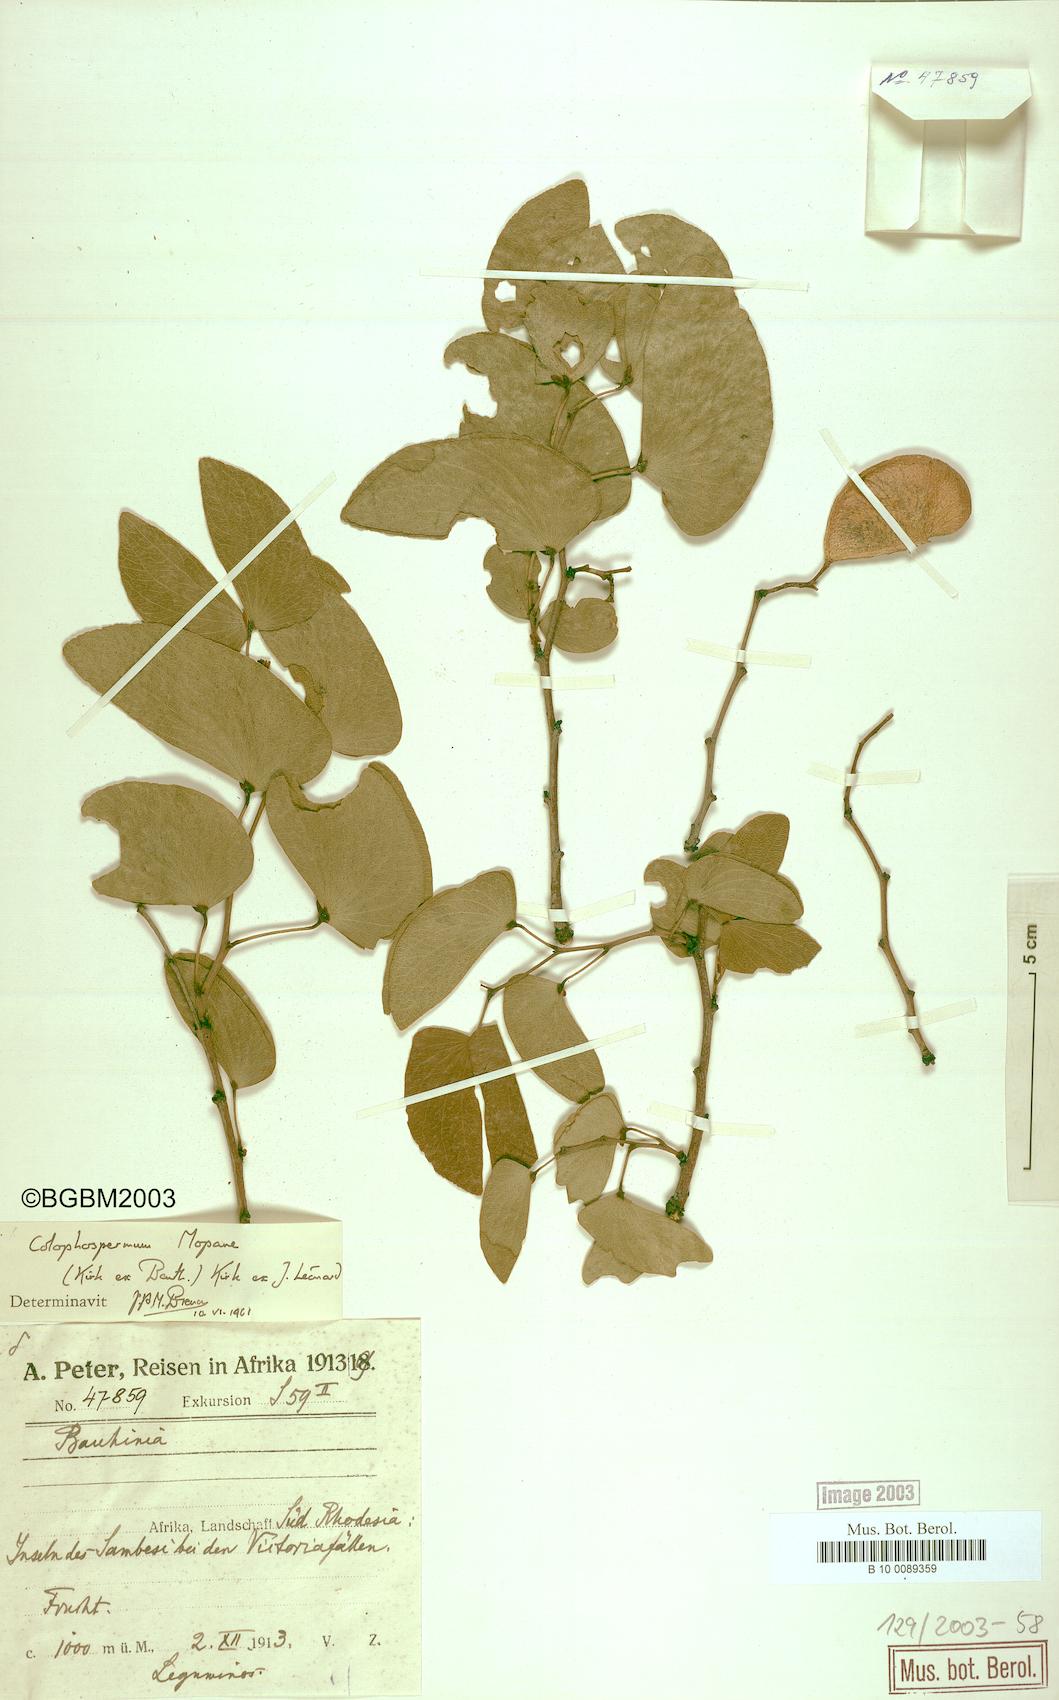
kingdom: Plantae
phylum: Tracheophyta
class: Magnoliopsida
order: Fabales
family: Fabaceae
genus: Colophospermum
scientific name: Colophospermum mopane
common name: Mopane
